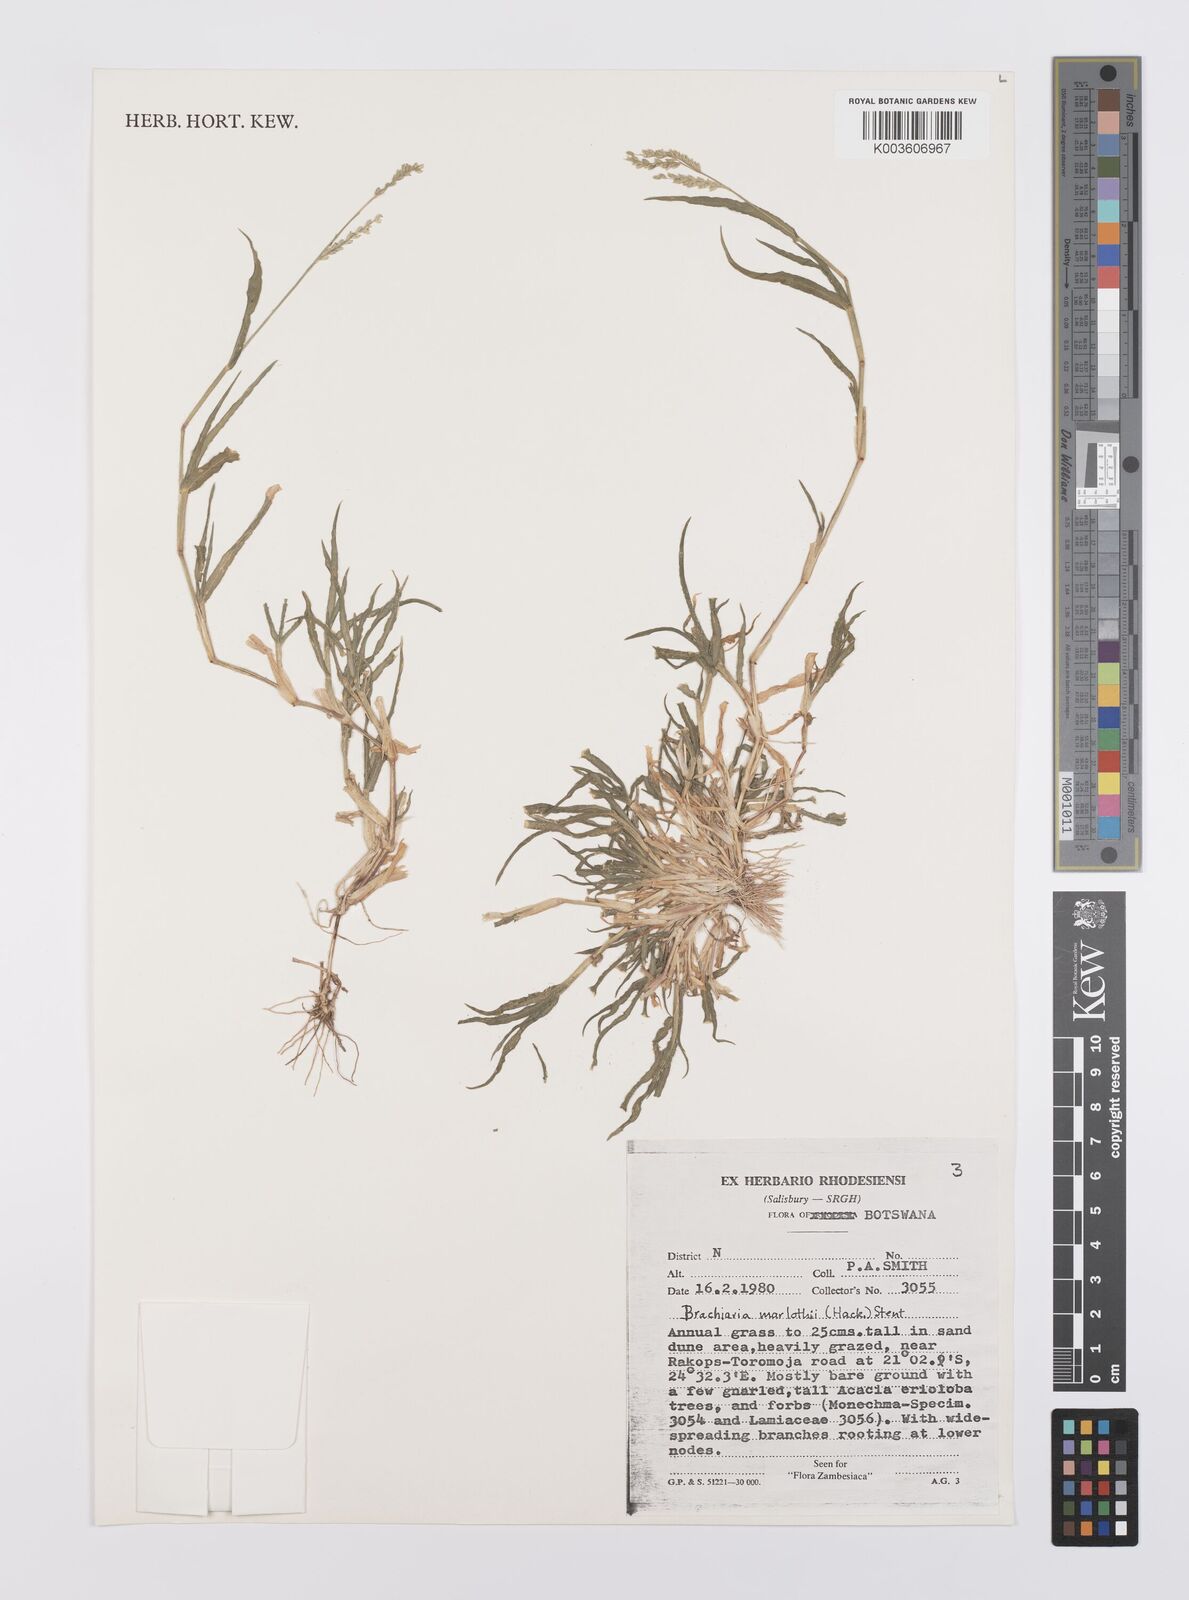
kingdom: Plantae
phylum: Tracheophyta
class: Liliopsida
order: Poales
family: Poaceae
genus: Urochloa
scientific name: Urochloa Brachiaria marlothii
